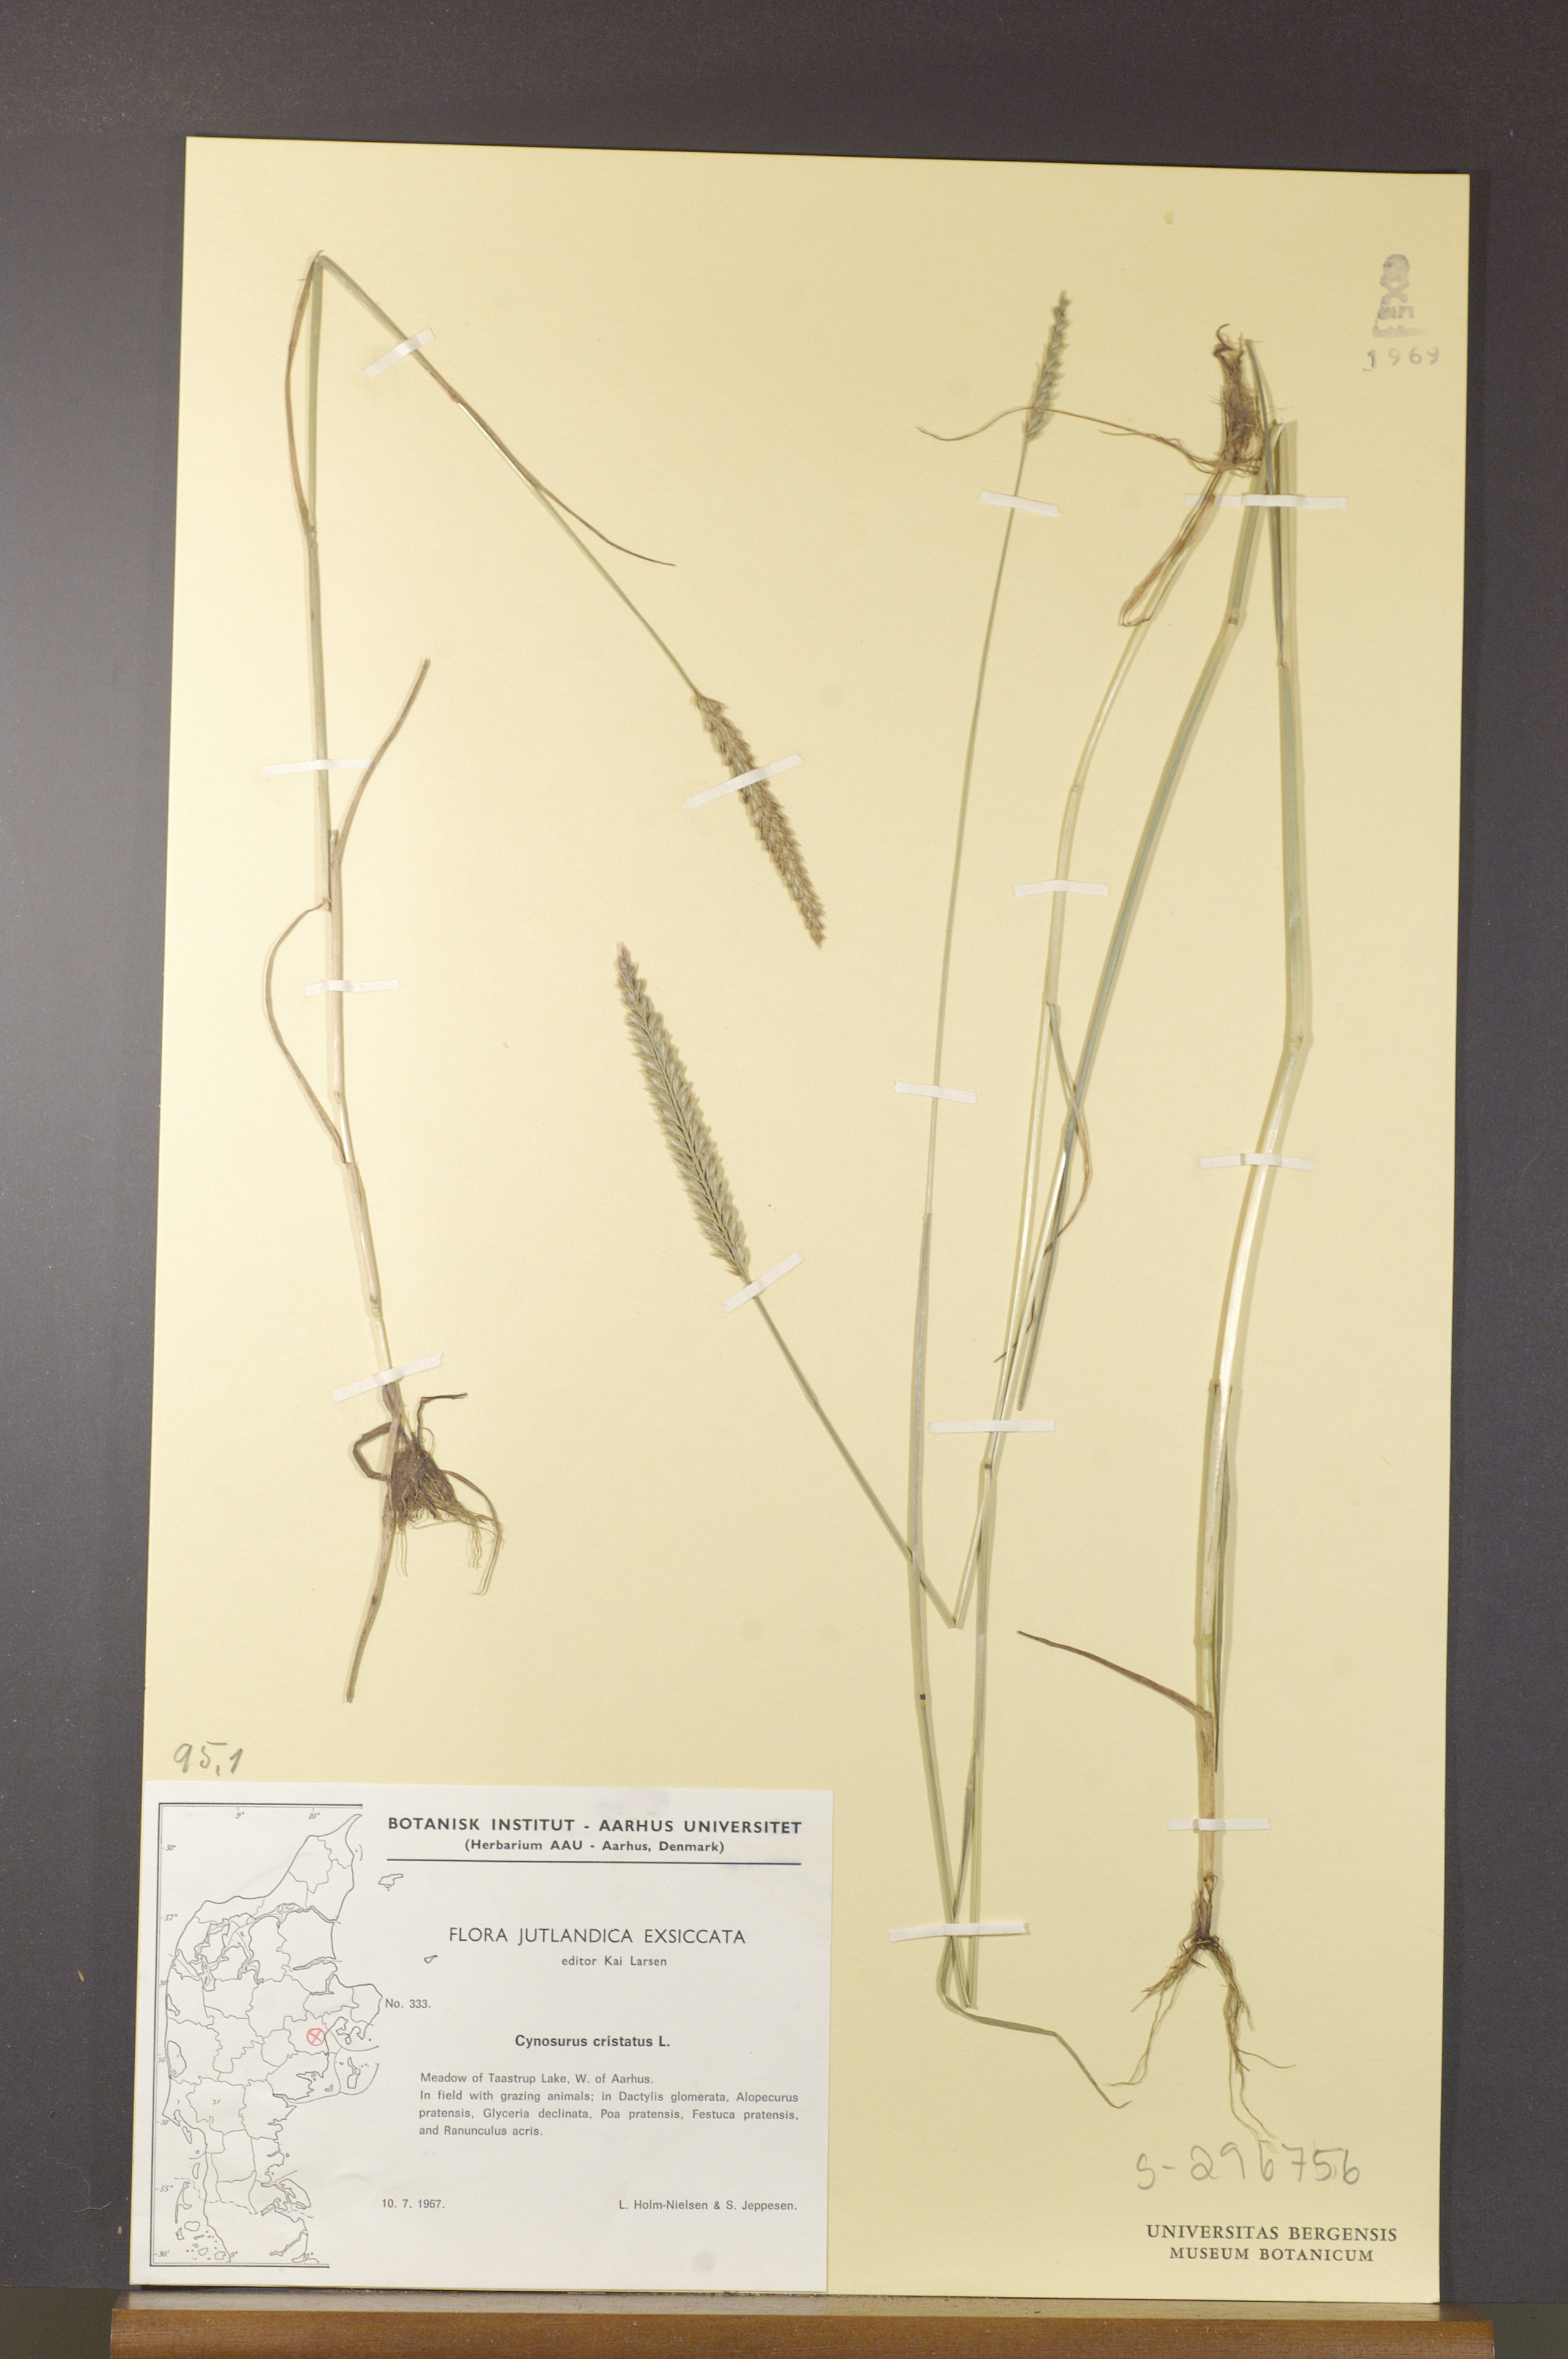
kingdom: Plantae
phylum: Tracheophyta
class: Liliopsida
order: Poales
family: Poaceae
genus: Cynosurus
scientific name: Cynosurus cristatus
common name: Crested dog's-tail
